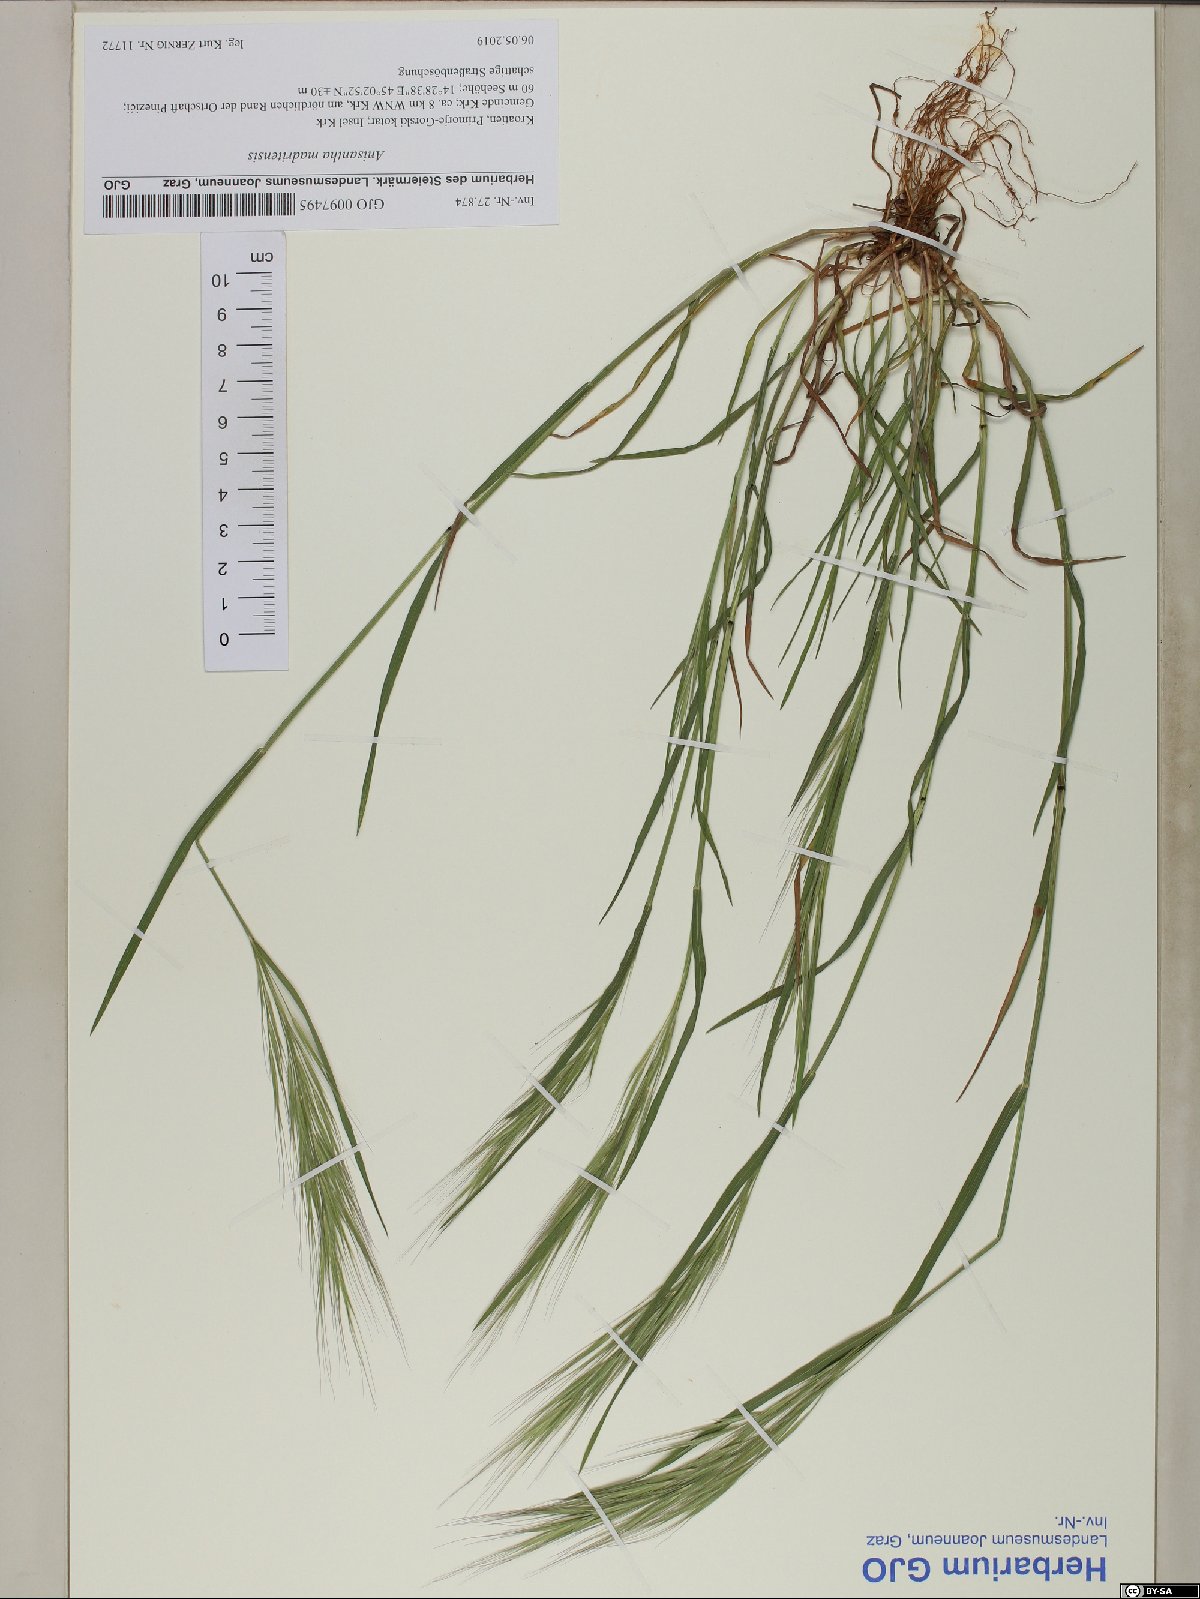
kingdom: Plantae
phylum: Tracheophyta
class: Liliopsida
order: Poales
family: Poaceae
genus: Bromus
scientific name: Bromus madritensis
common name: Compact brome
